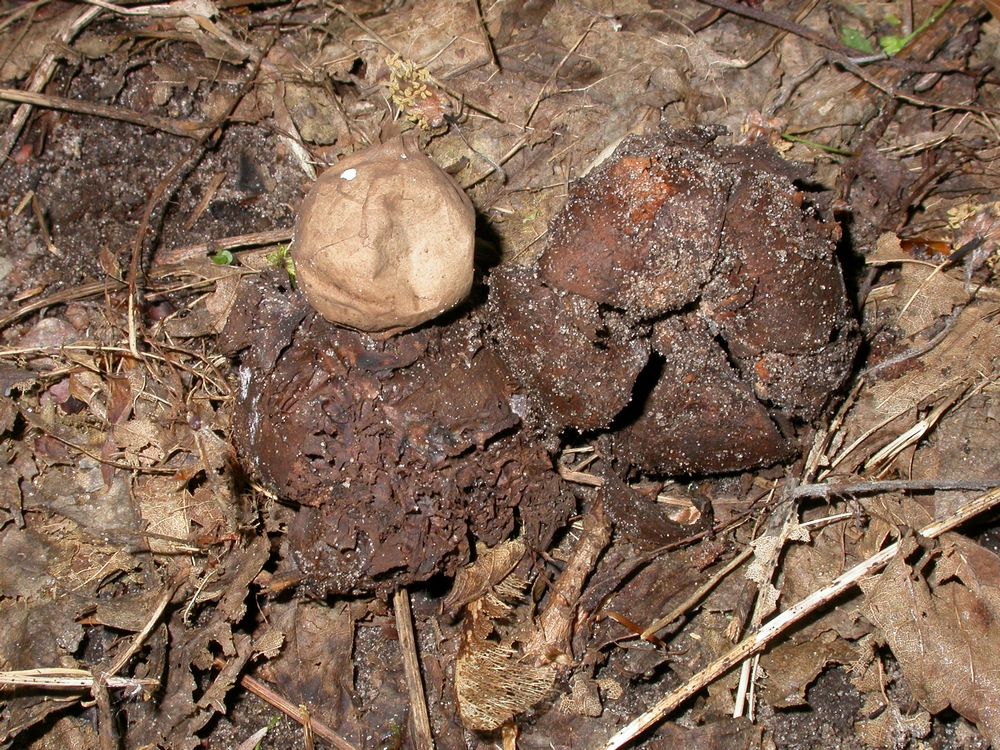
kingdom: Fungi
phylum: Basidiomycota
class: Agaricomycetes
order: Geastrales
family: Geastraceae
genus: Geastrum
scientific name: Geastrum michelianum
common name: kødet stjernebold
